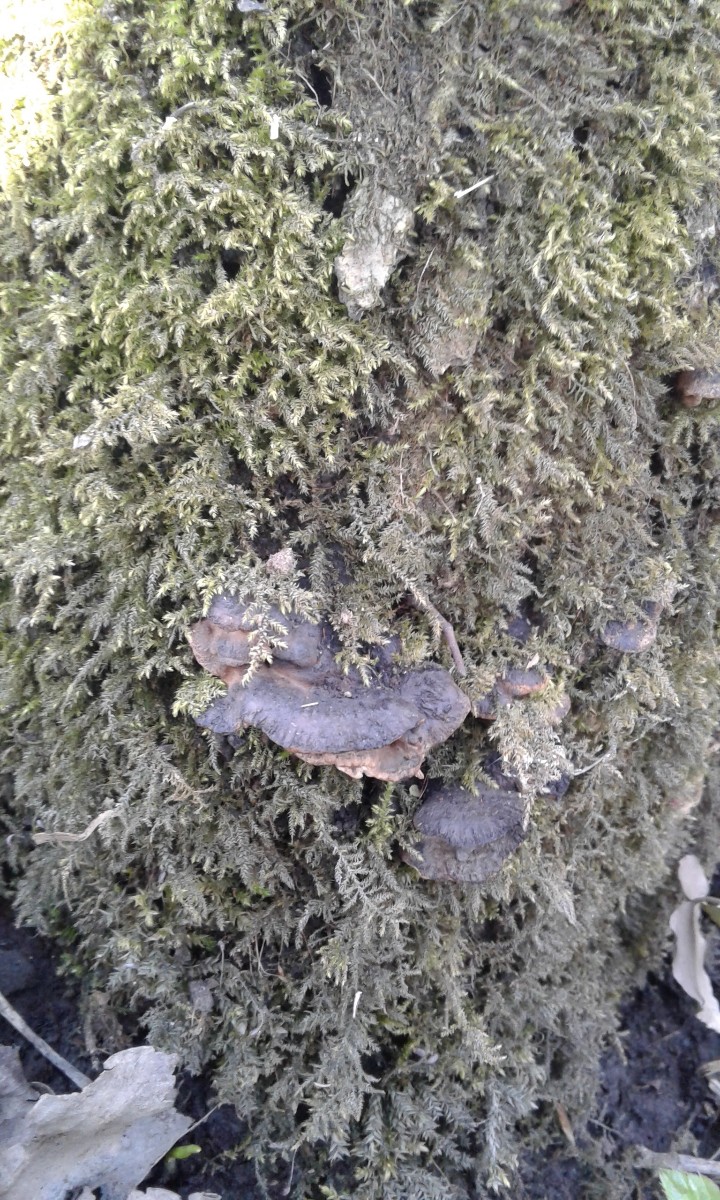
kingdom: Fungi
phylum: Basidiomycota
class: Agaricomycetes
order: Polyporales
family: Incrustoporiaceae
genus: Skeletocutis
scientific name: Skeletocutis nemoralis
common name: stor krystalporesvamp
